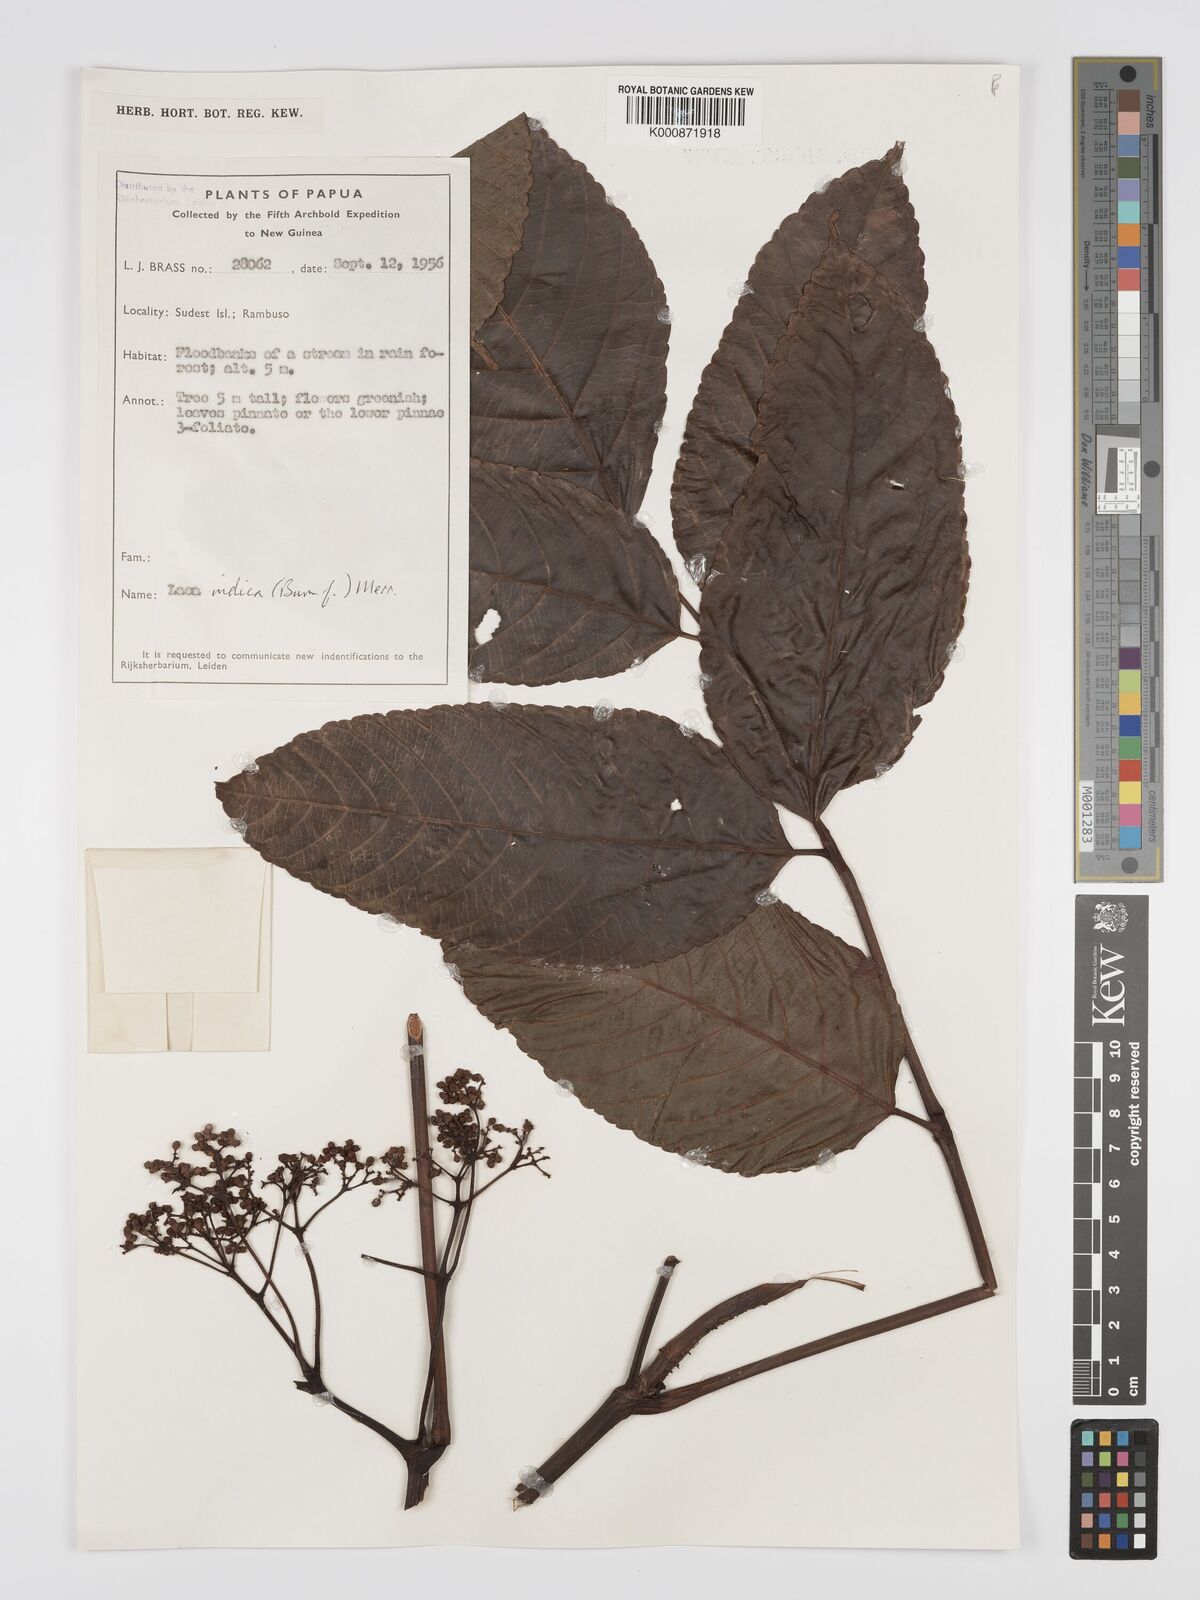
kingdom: Plantae
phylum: Tracheophyta
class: Magnoliopsida
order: Vitales
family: Vitaceae
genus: Leea
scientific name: Leea indica
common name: Bandicoot-berry
